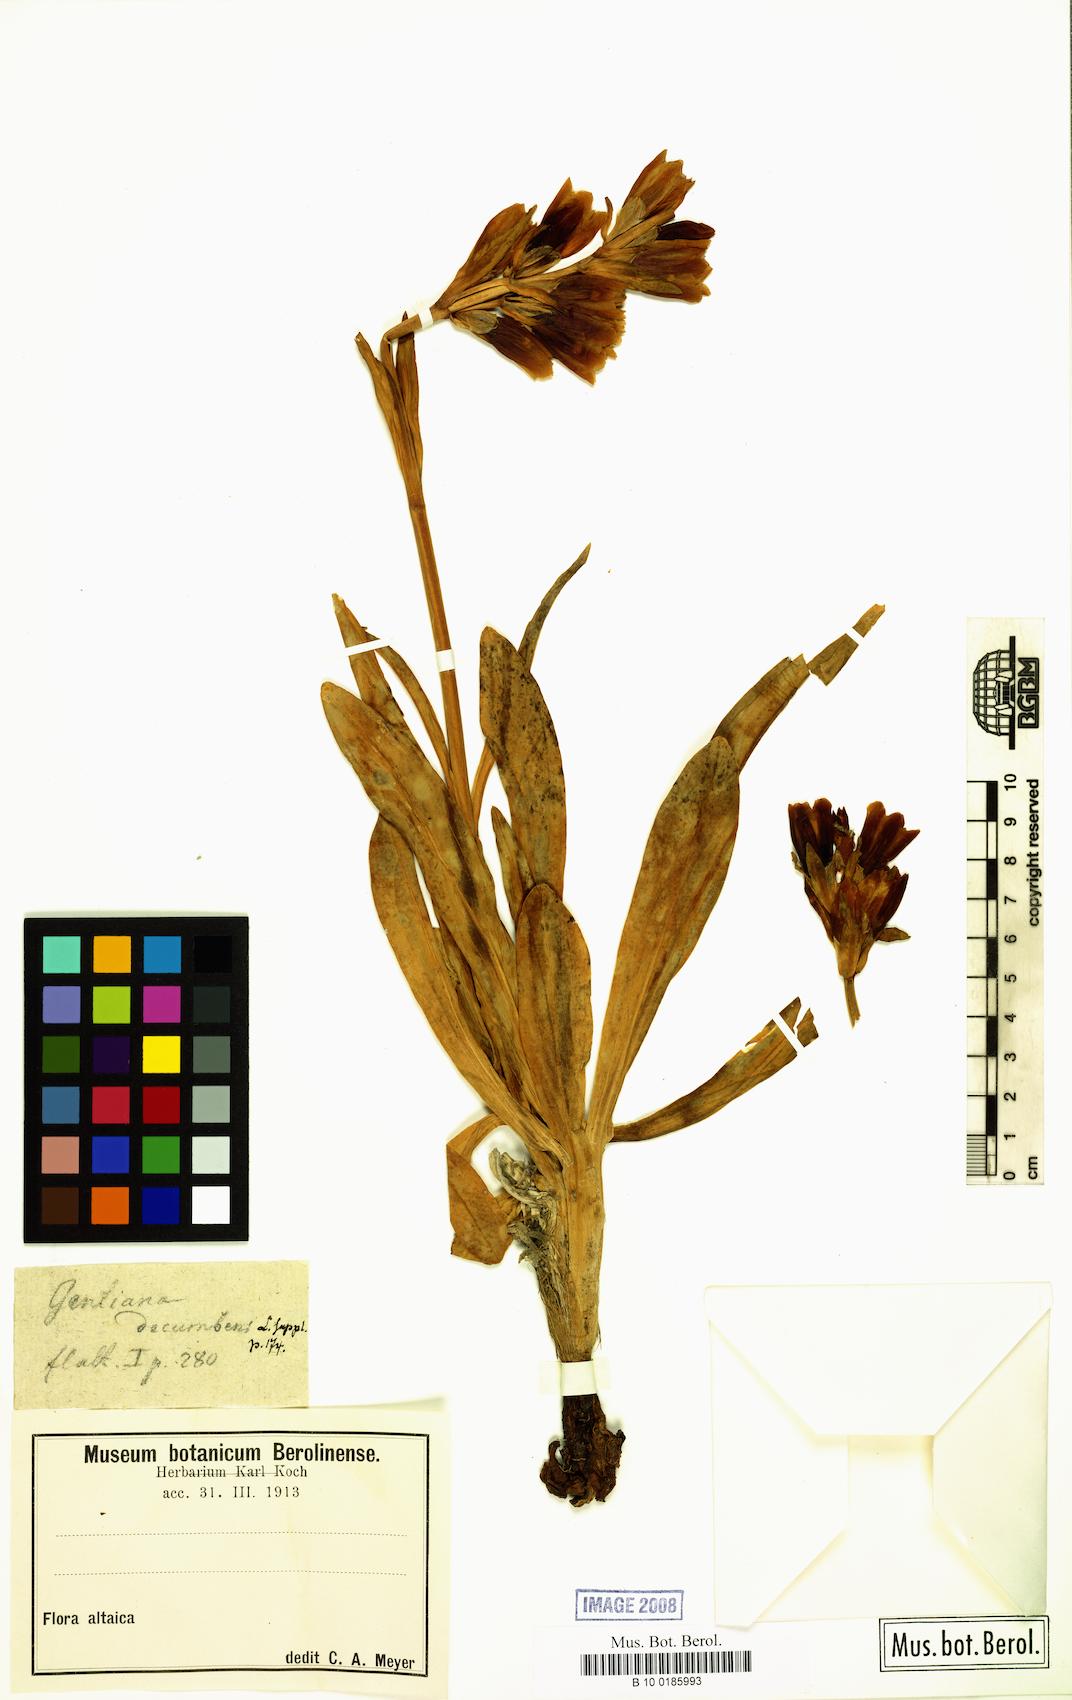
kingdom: Plantae
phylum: Tracheophyta
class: Magnoliopsida
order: Gentianales
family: Gentianaceae
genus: Gentiana
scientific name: Gentiana decumbens
